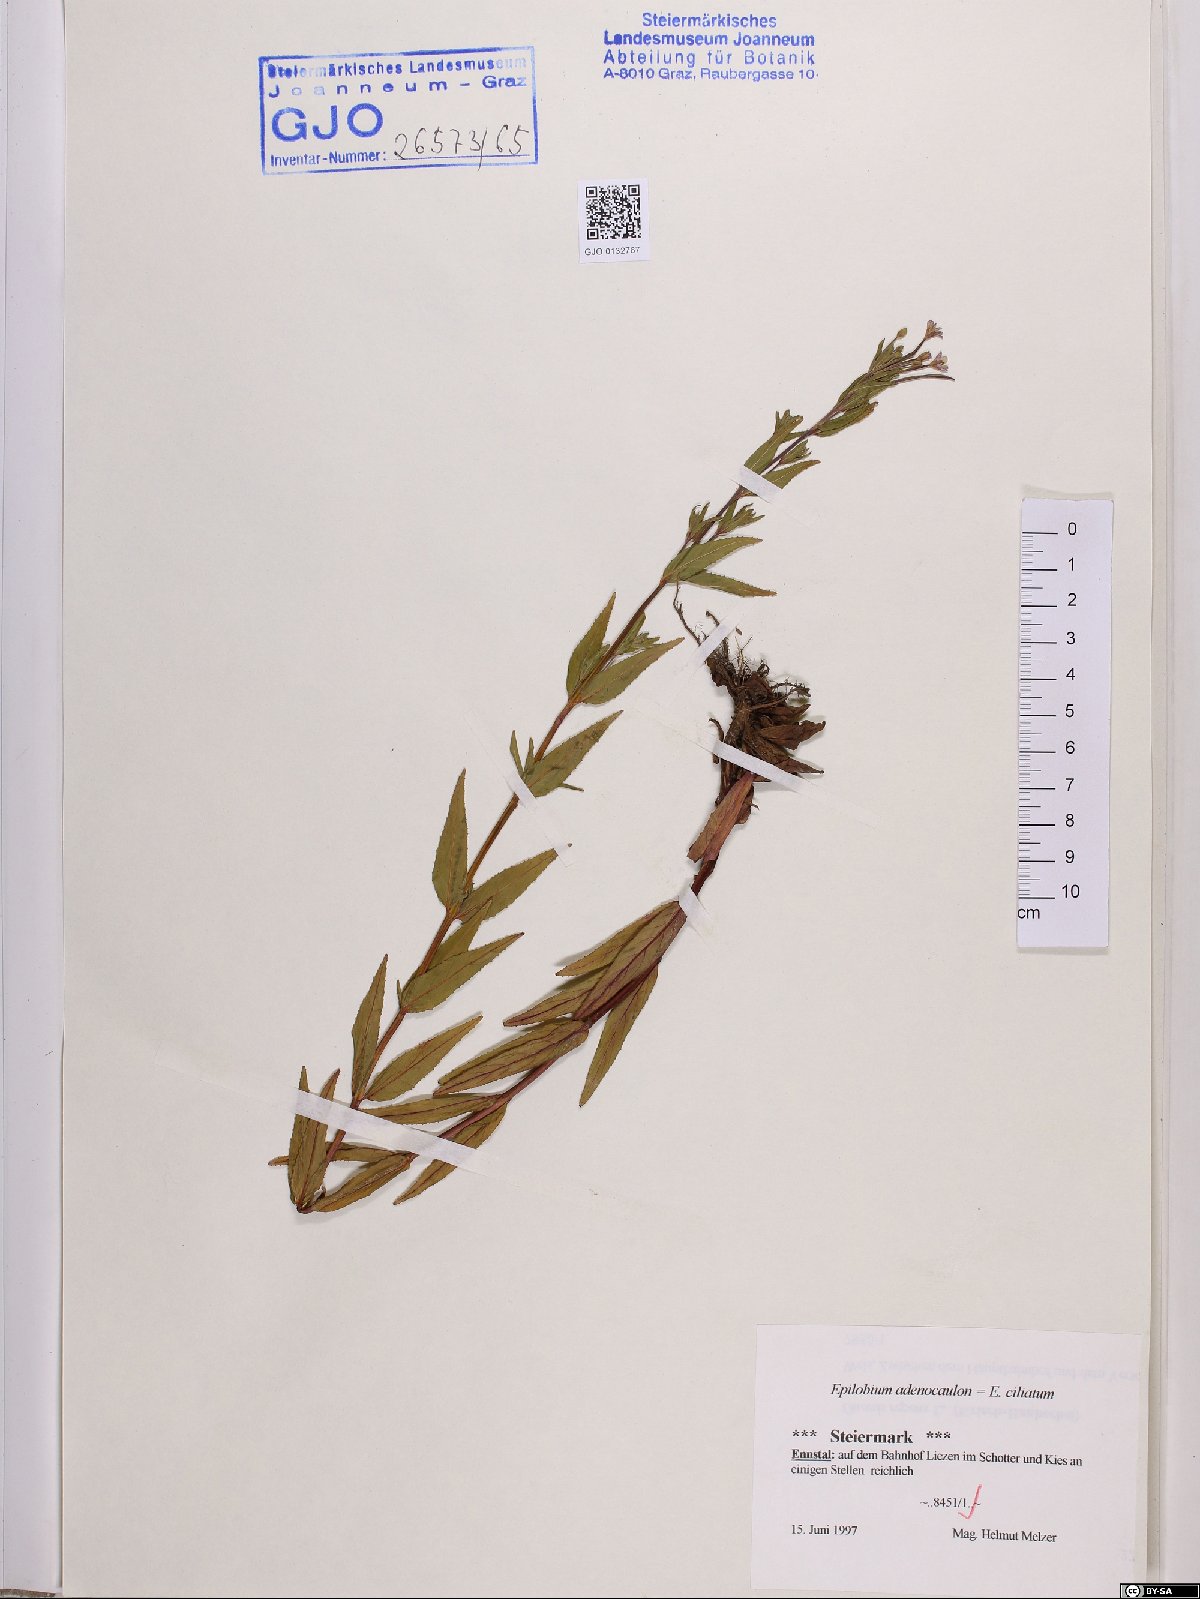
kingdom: Plantae
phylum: Tracheophyta
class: Magnoliopsida
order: Myrtales
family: Onagraceae
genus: Epilobium
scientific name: Epilobium ciliatum
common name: American willowherb
